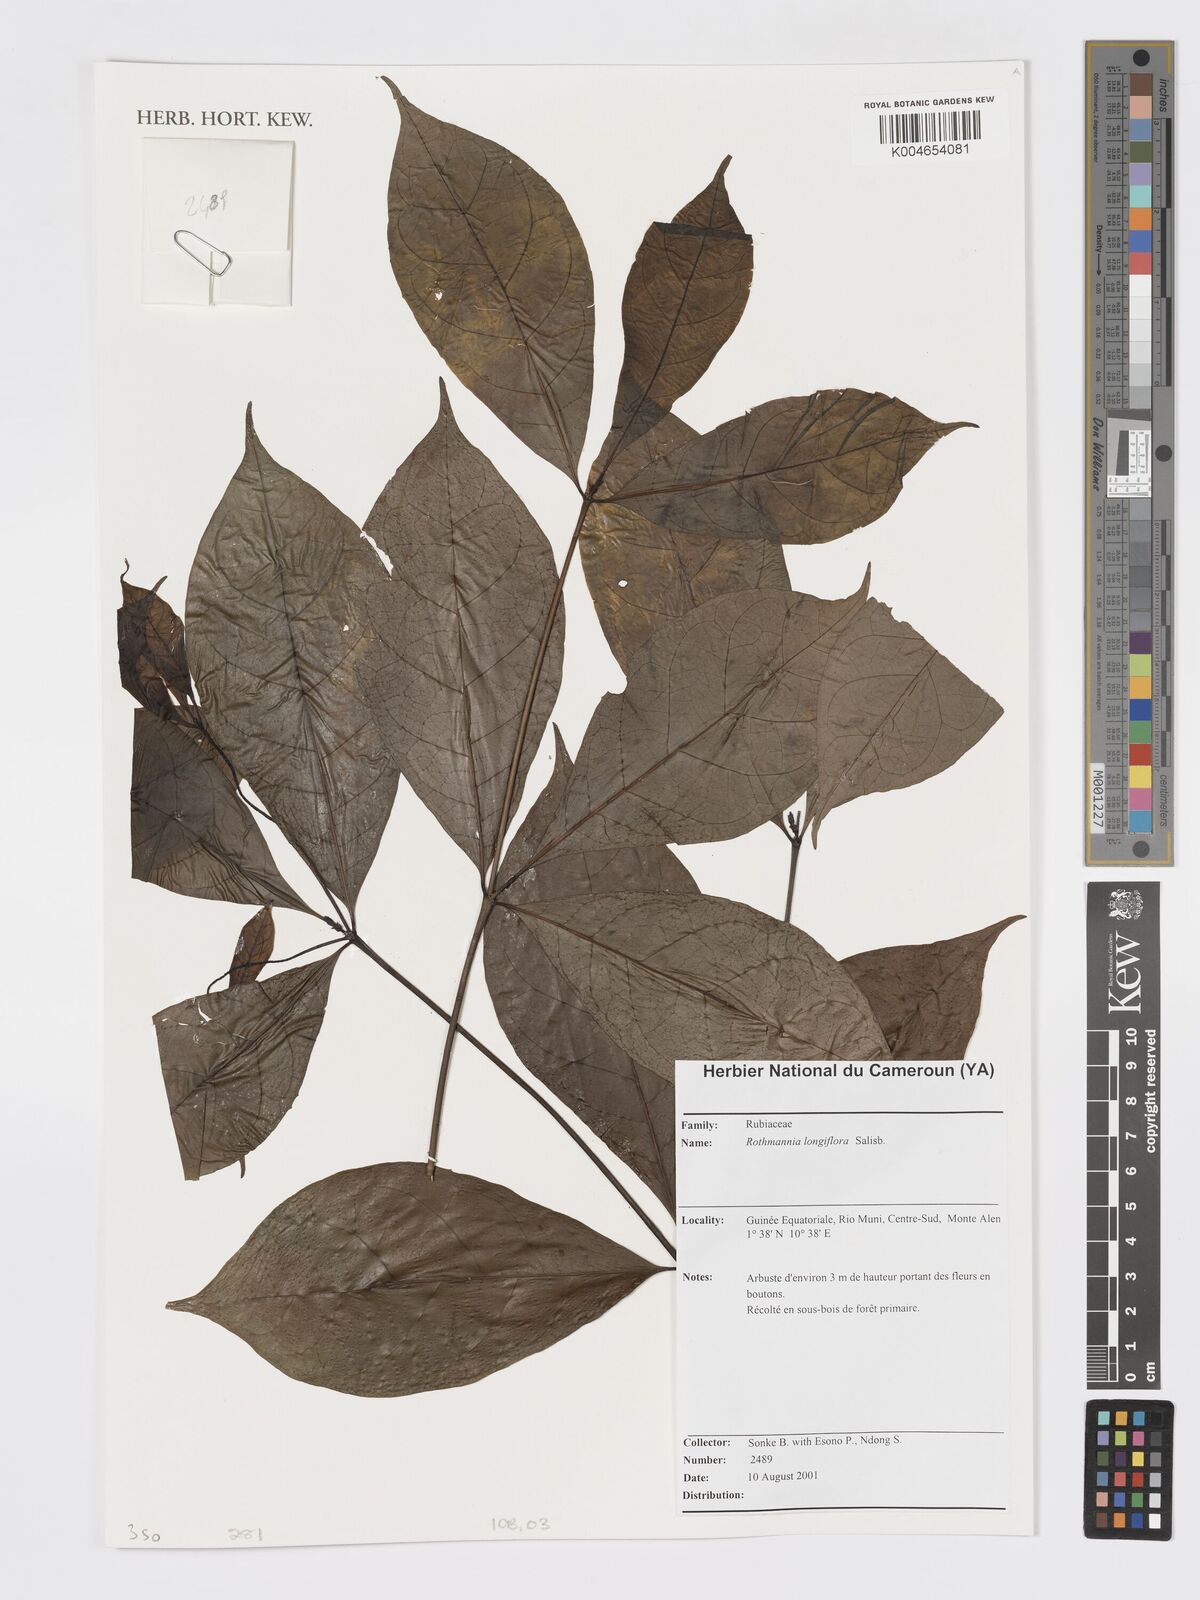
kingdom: Plantae
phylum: Tracheophyta
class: Magnoliopsida
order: Gentianales
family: Rubiaceae
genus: Rothmannia
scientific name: Rothmannia longiflora
